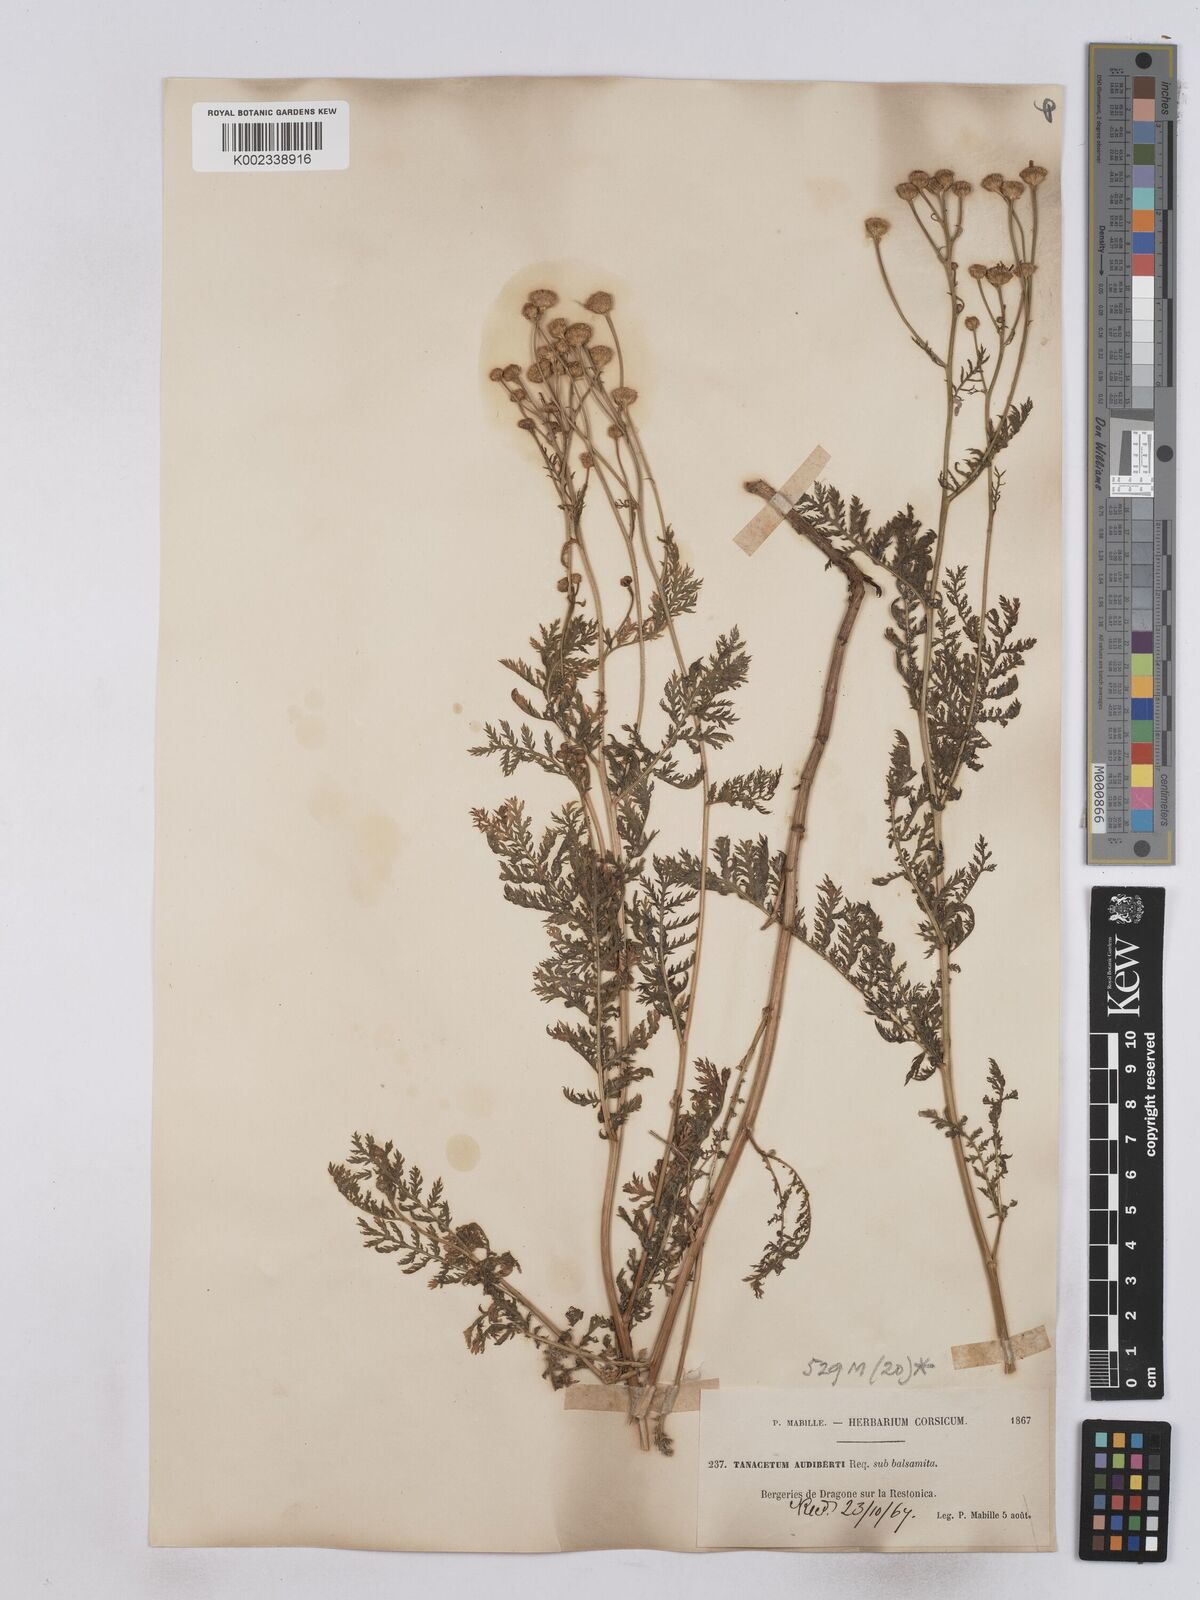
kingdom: Plantae
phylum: Tracheophyta
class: Magnoliopsida
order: Asterales
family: Asteraceae
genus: Tanacetum
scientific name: Tanacetum audibertii
